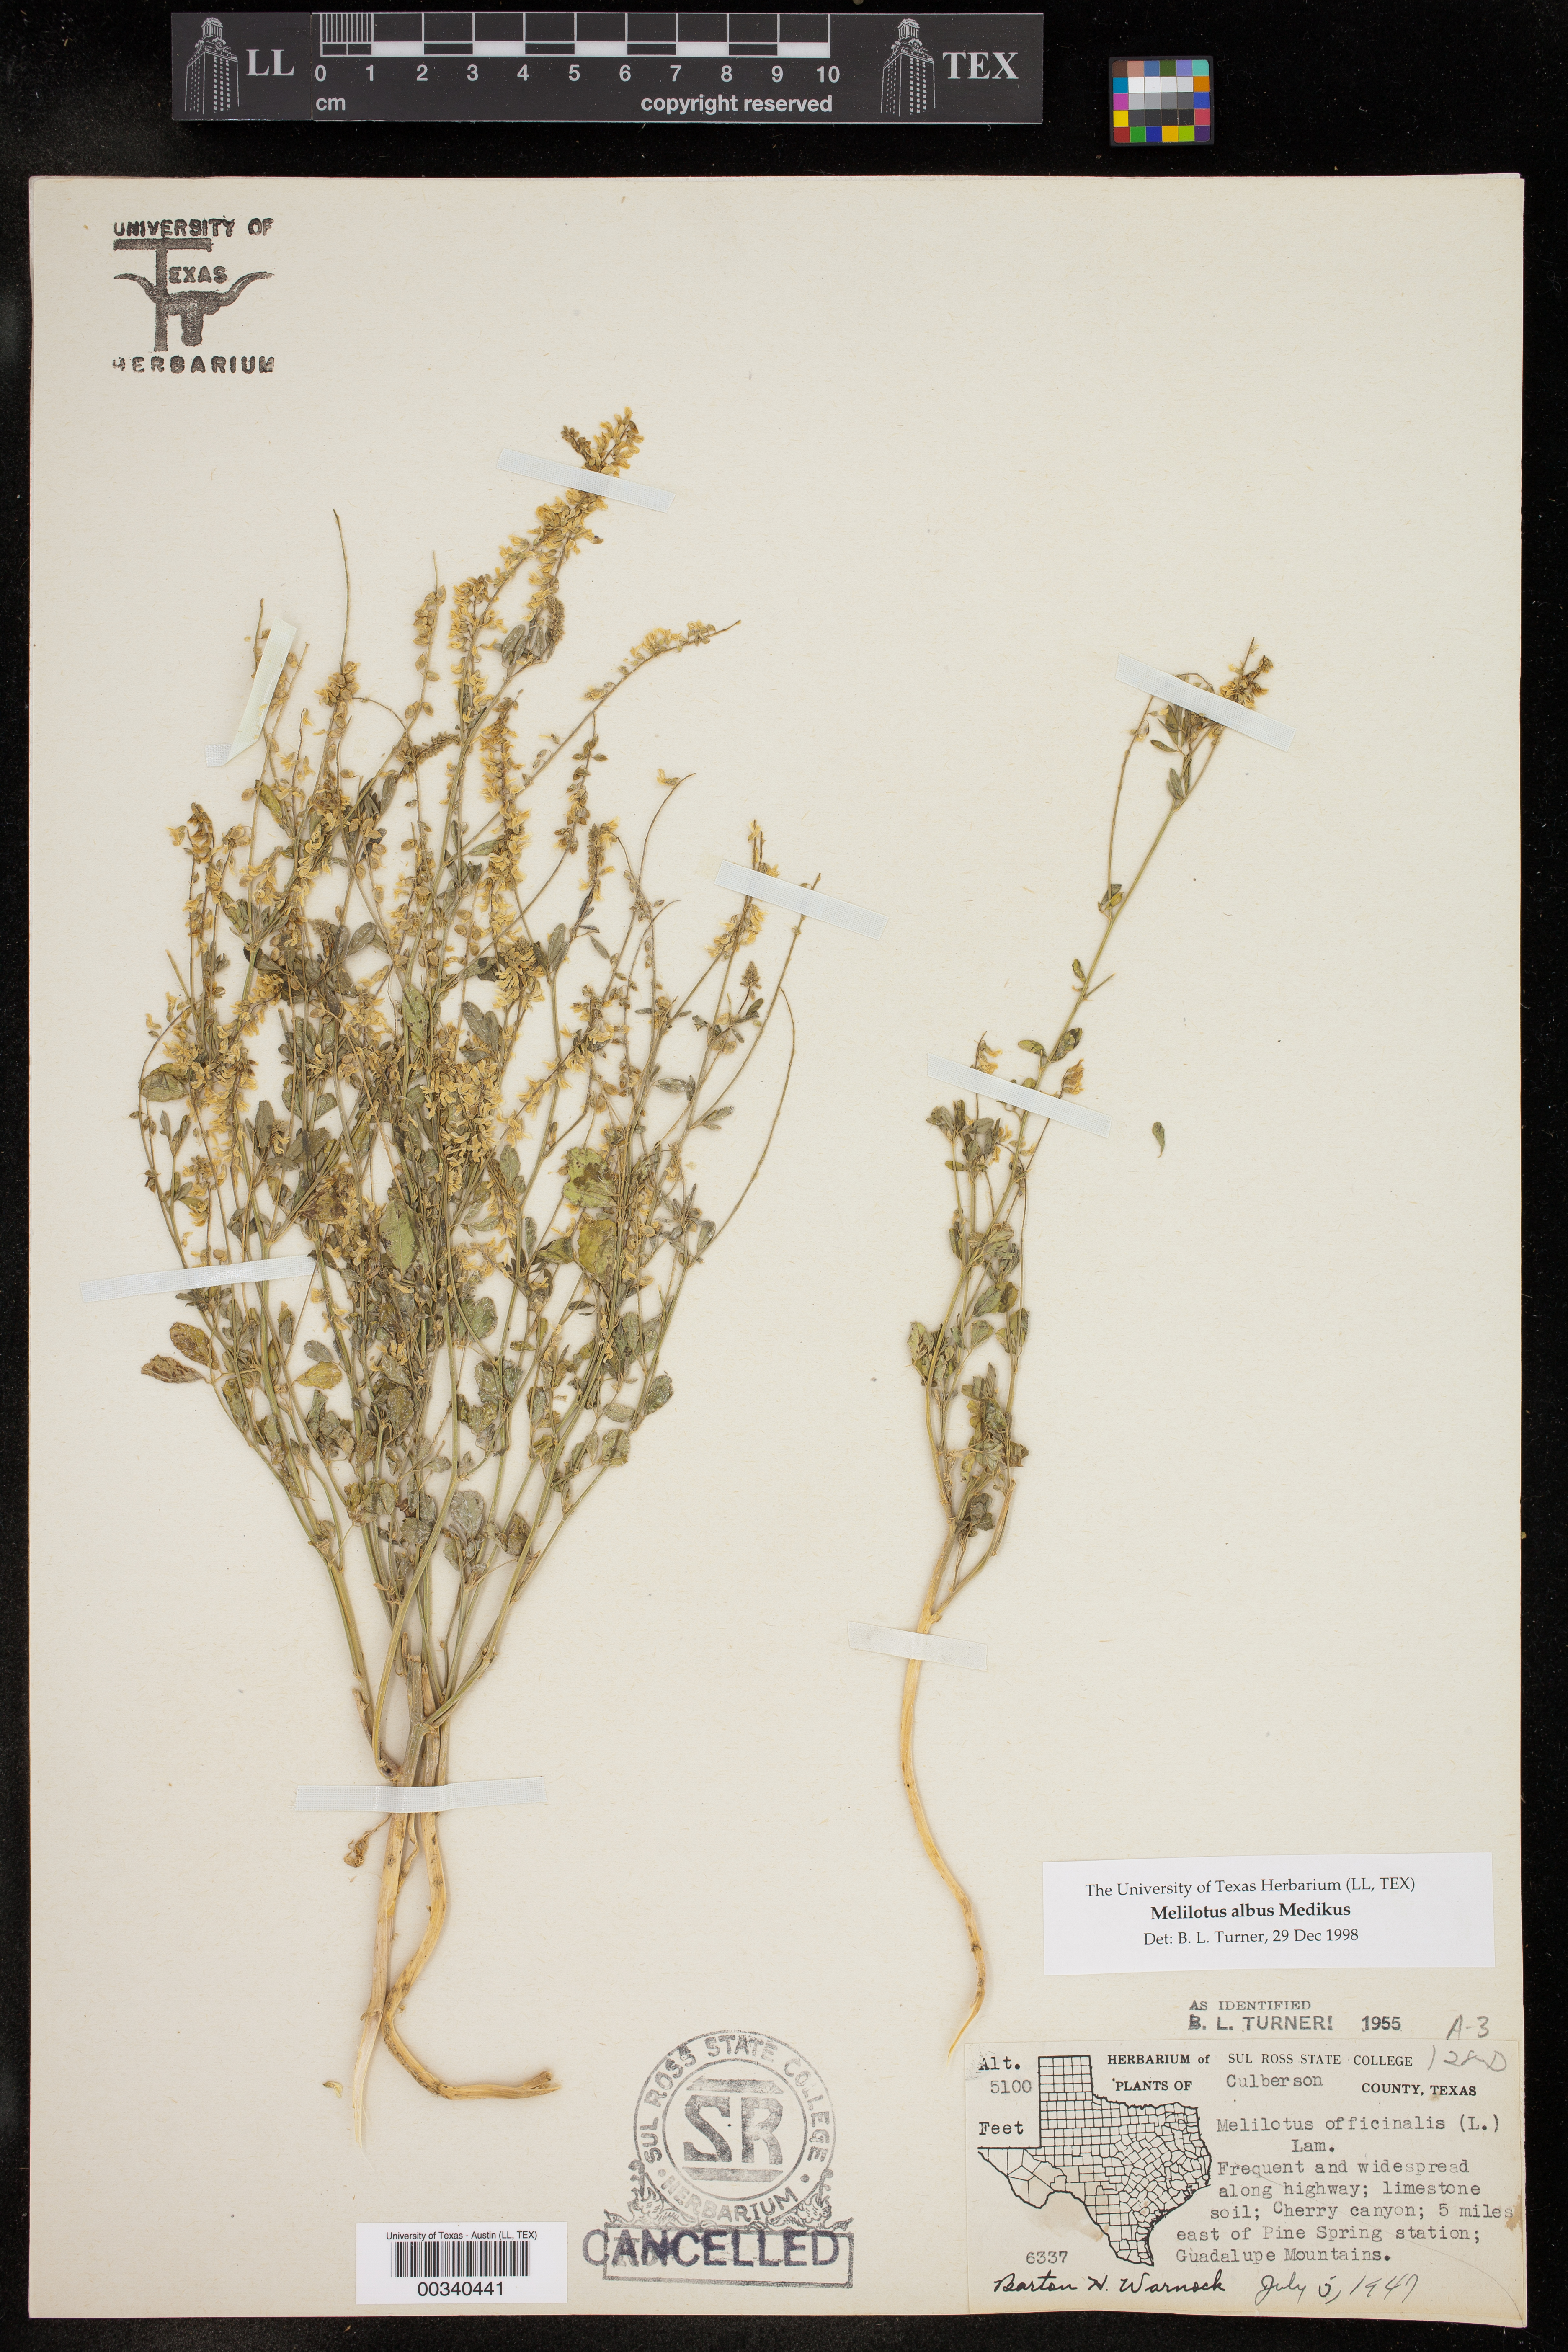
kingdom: Plantae
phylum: Tracheophyta
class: Magnoliopsida
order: Fabales
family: Fabaceae
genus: Melilotus
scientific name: Melilotus albus
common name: White melilot
